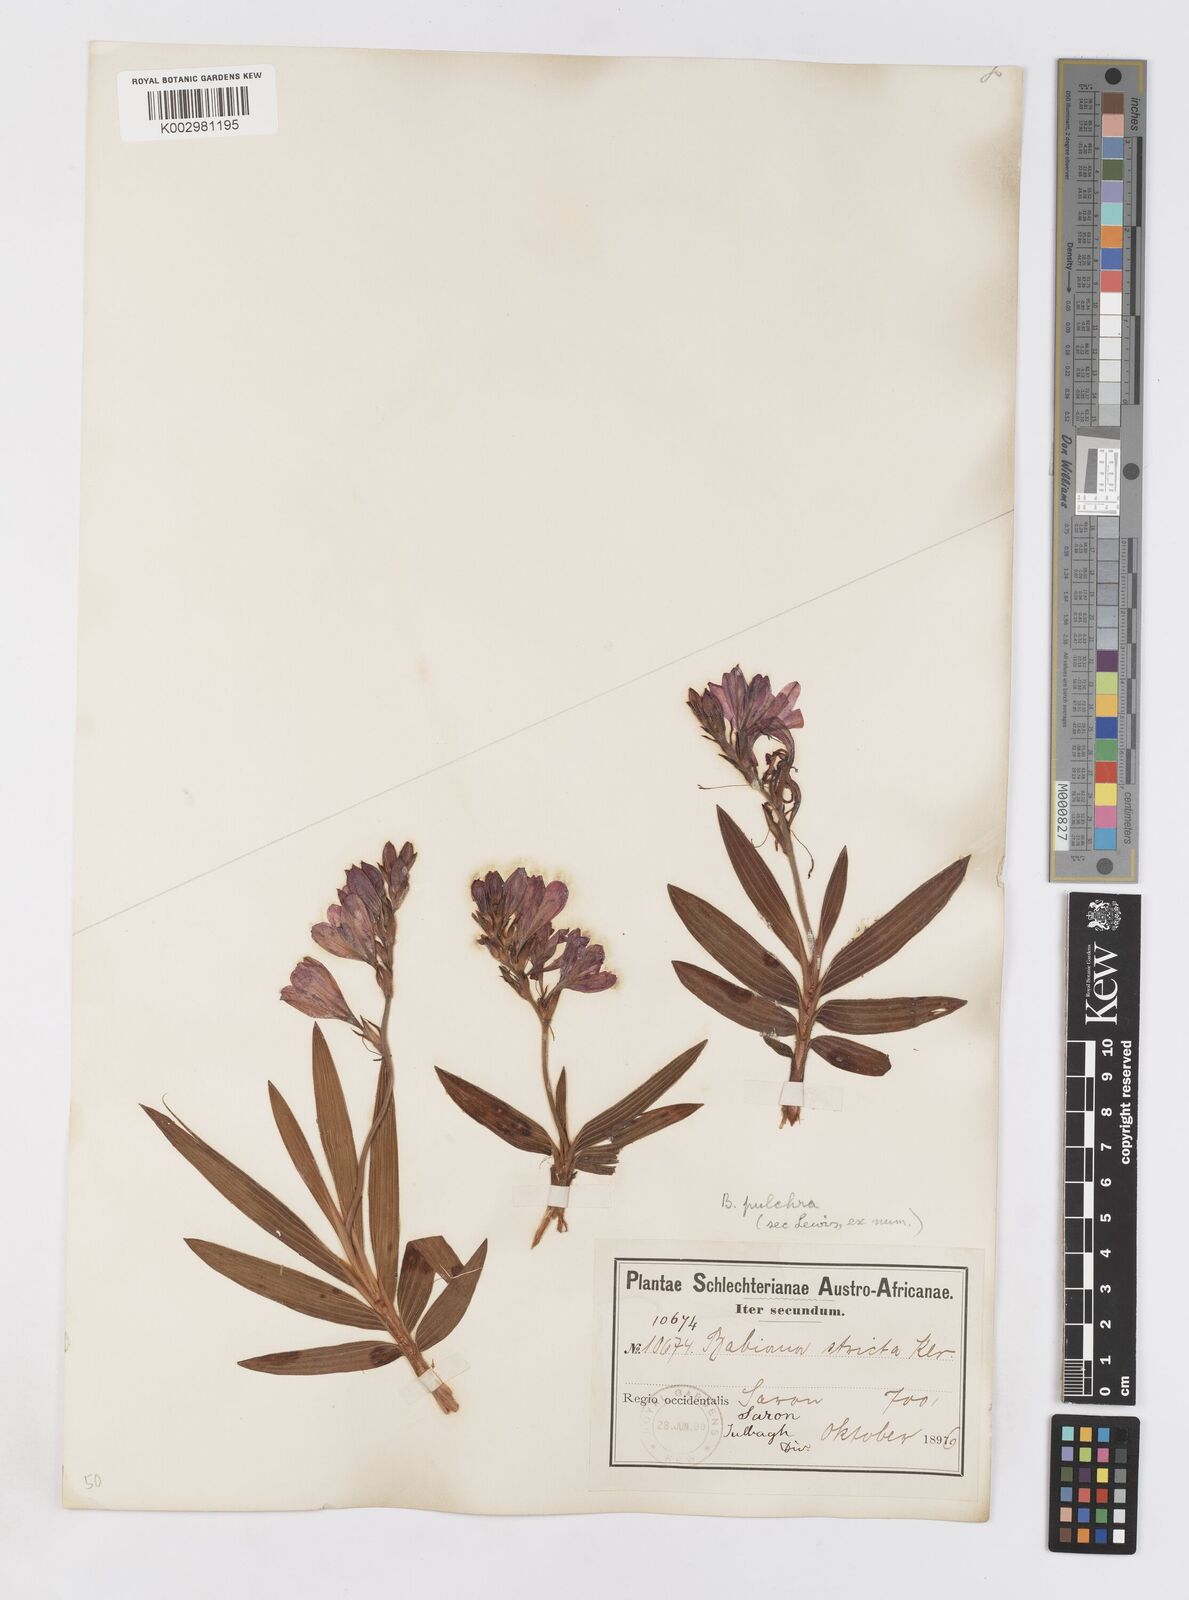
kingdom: Plantae
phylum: Tracheophyta
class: Liliopsida
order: Asparagales
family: Iridaceae
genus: Babiana
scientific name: Babiana angustifolia
